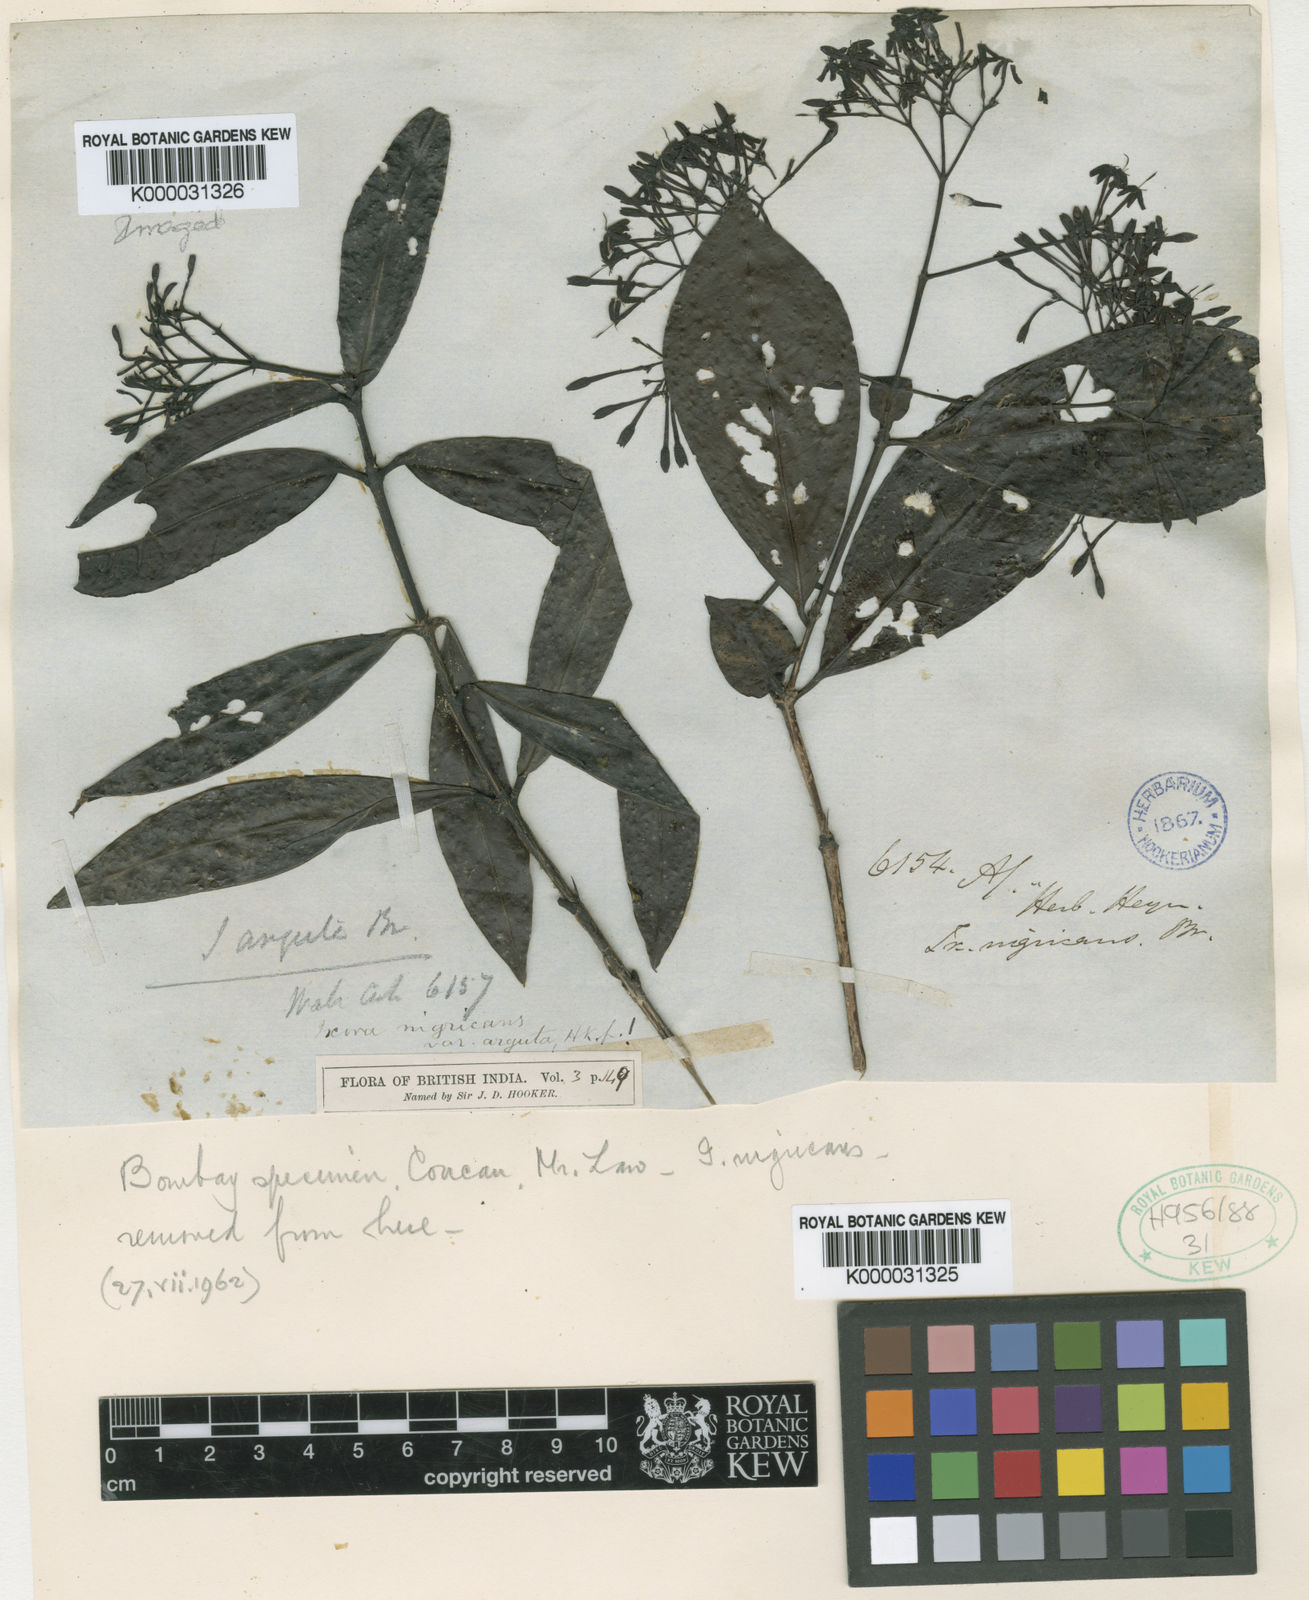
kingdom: Plantae
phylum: Tracheophyta
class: Magnoliopsida
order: Gentianales
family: Rubiaceae
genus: Ixora
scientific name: Ixora
